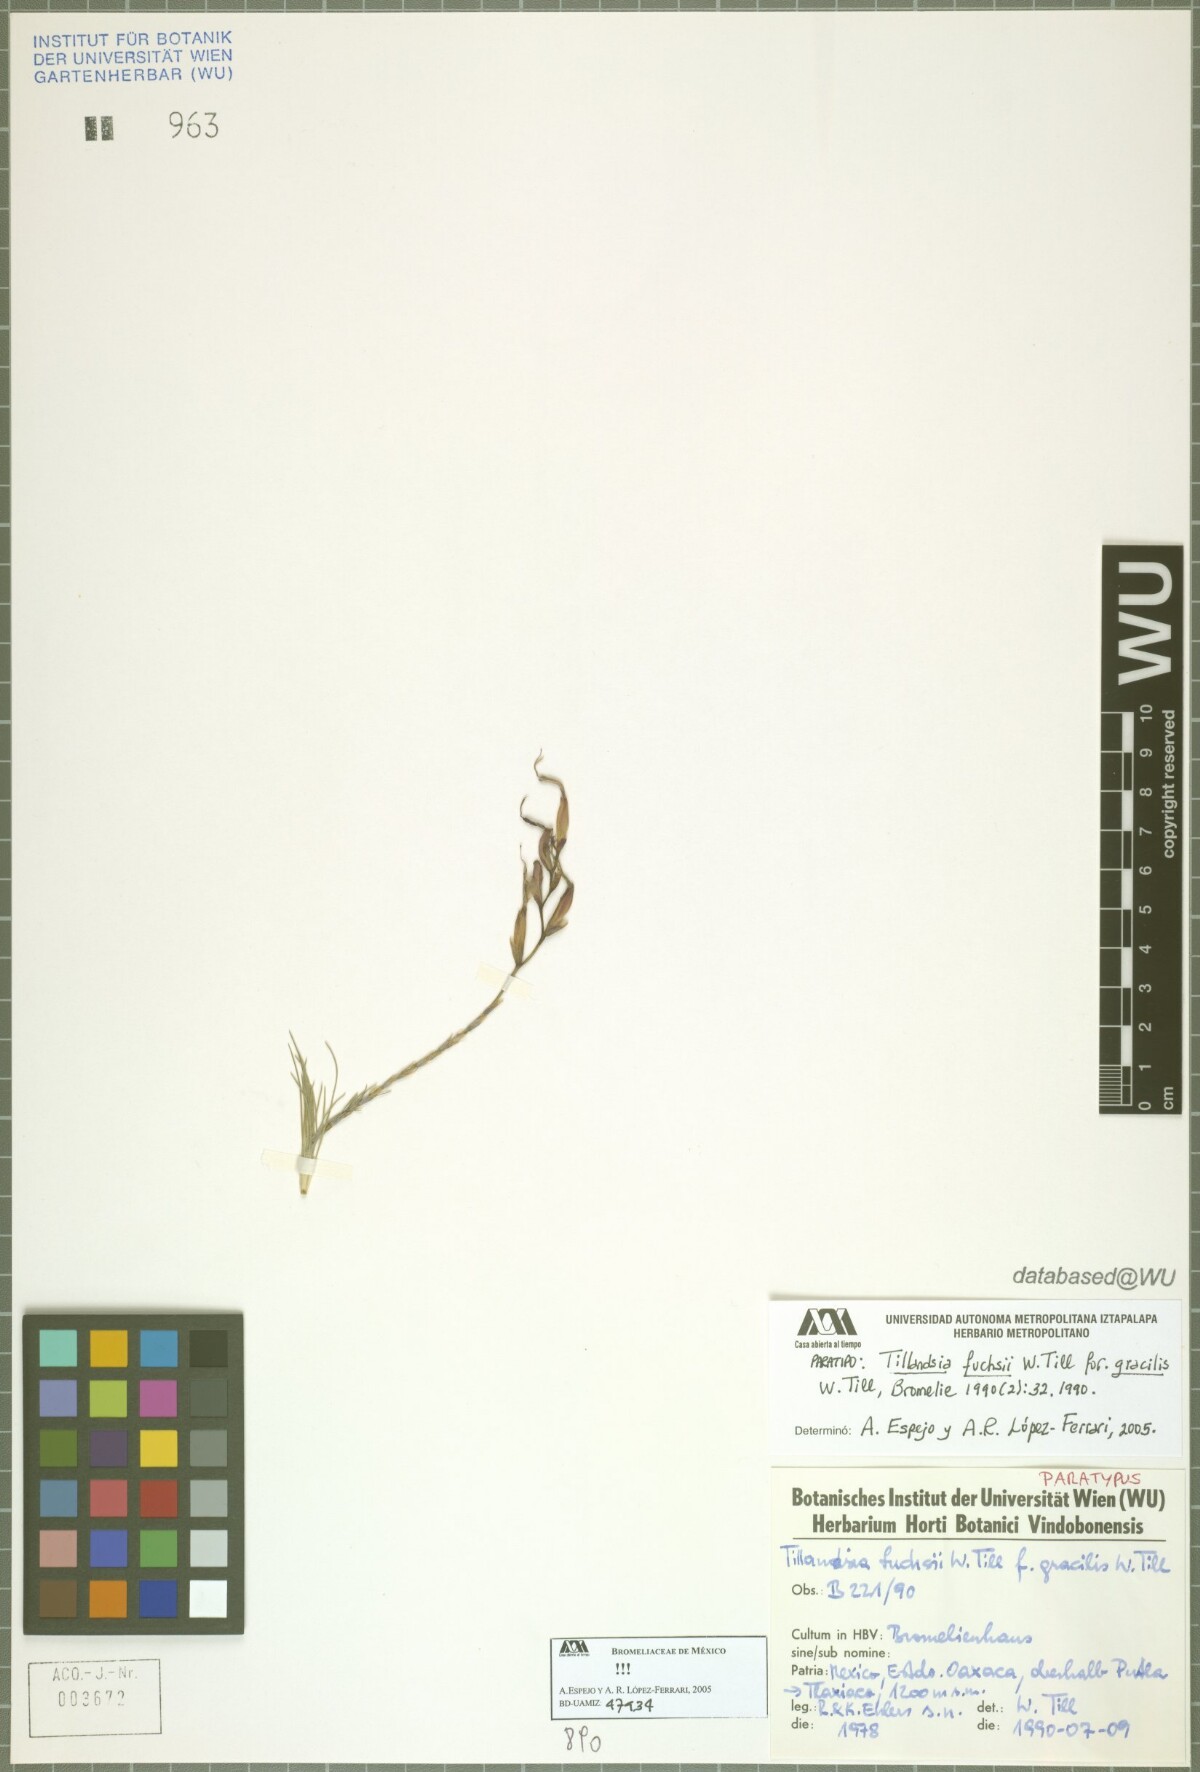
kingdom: Plantae
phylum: Tracheophyta
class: Liliopsida
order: Poales
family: Bromeliaceae
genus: Tillandsia
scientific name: Tillandsia fuchsii
